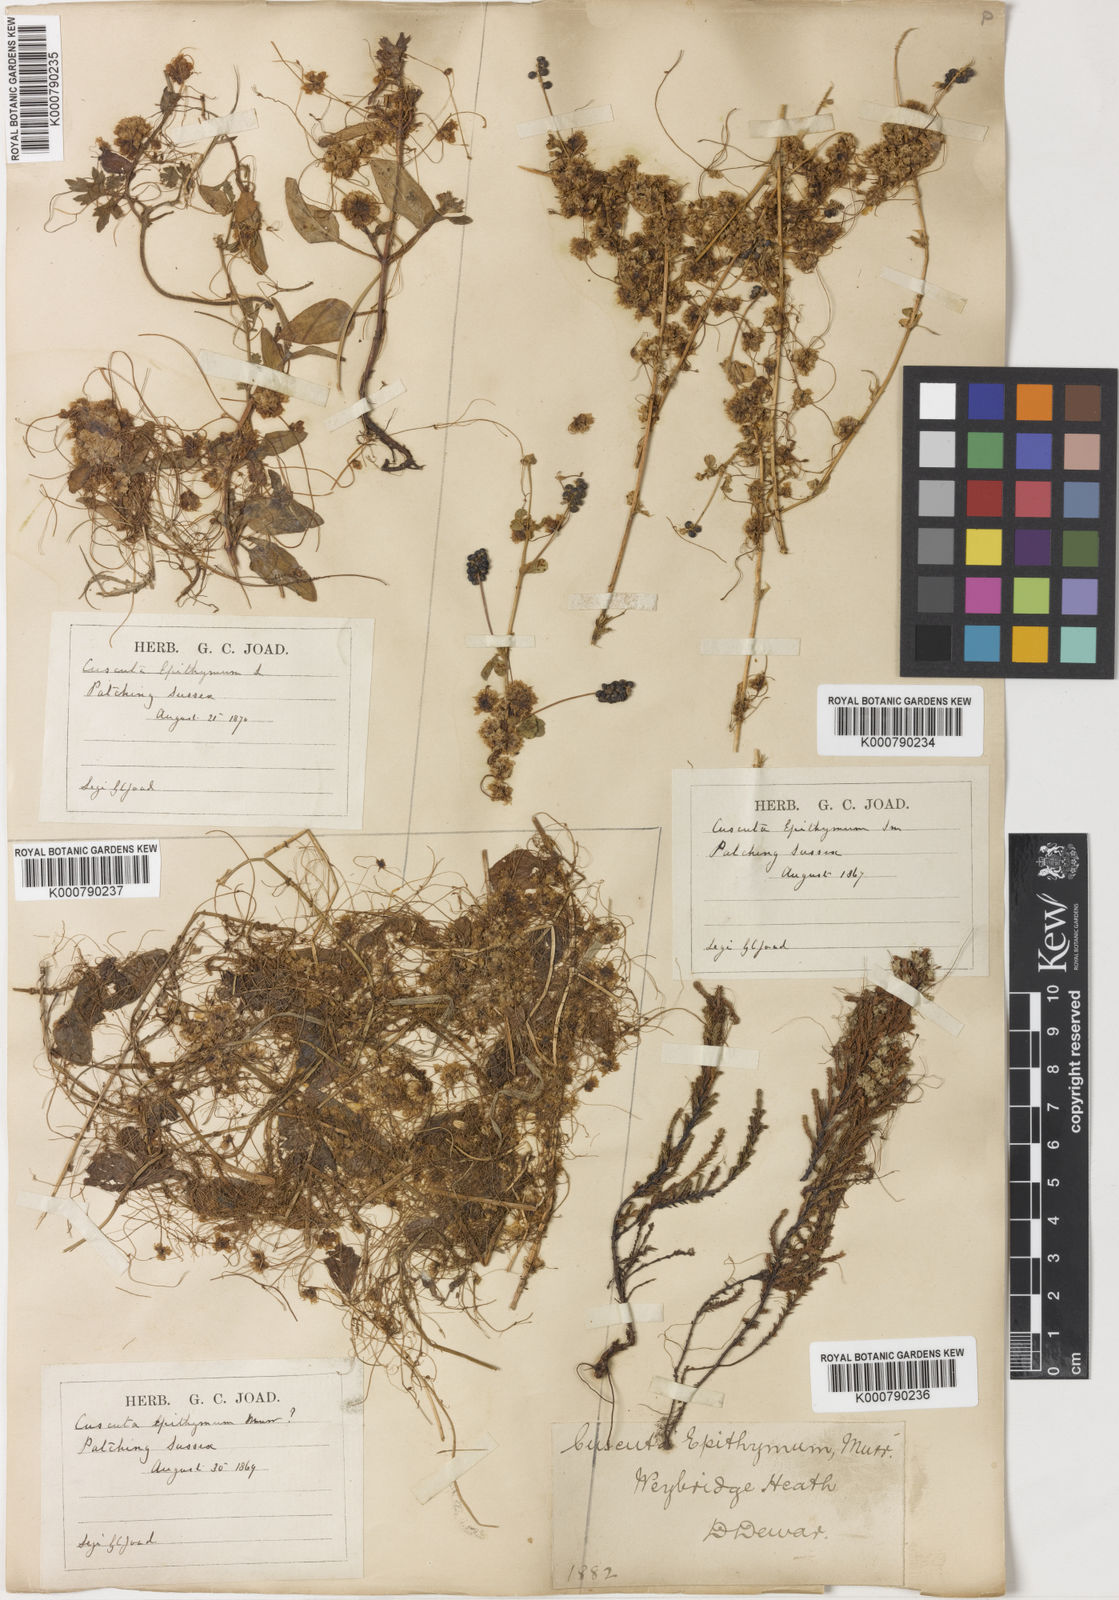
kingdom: Plantae
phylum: Tracheophyta
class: Magnoliopsida
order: Solanales
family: Convolvulaceae
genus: Cuscuta
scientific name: Cuscuta epithymum
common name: Clover dodder
